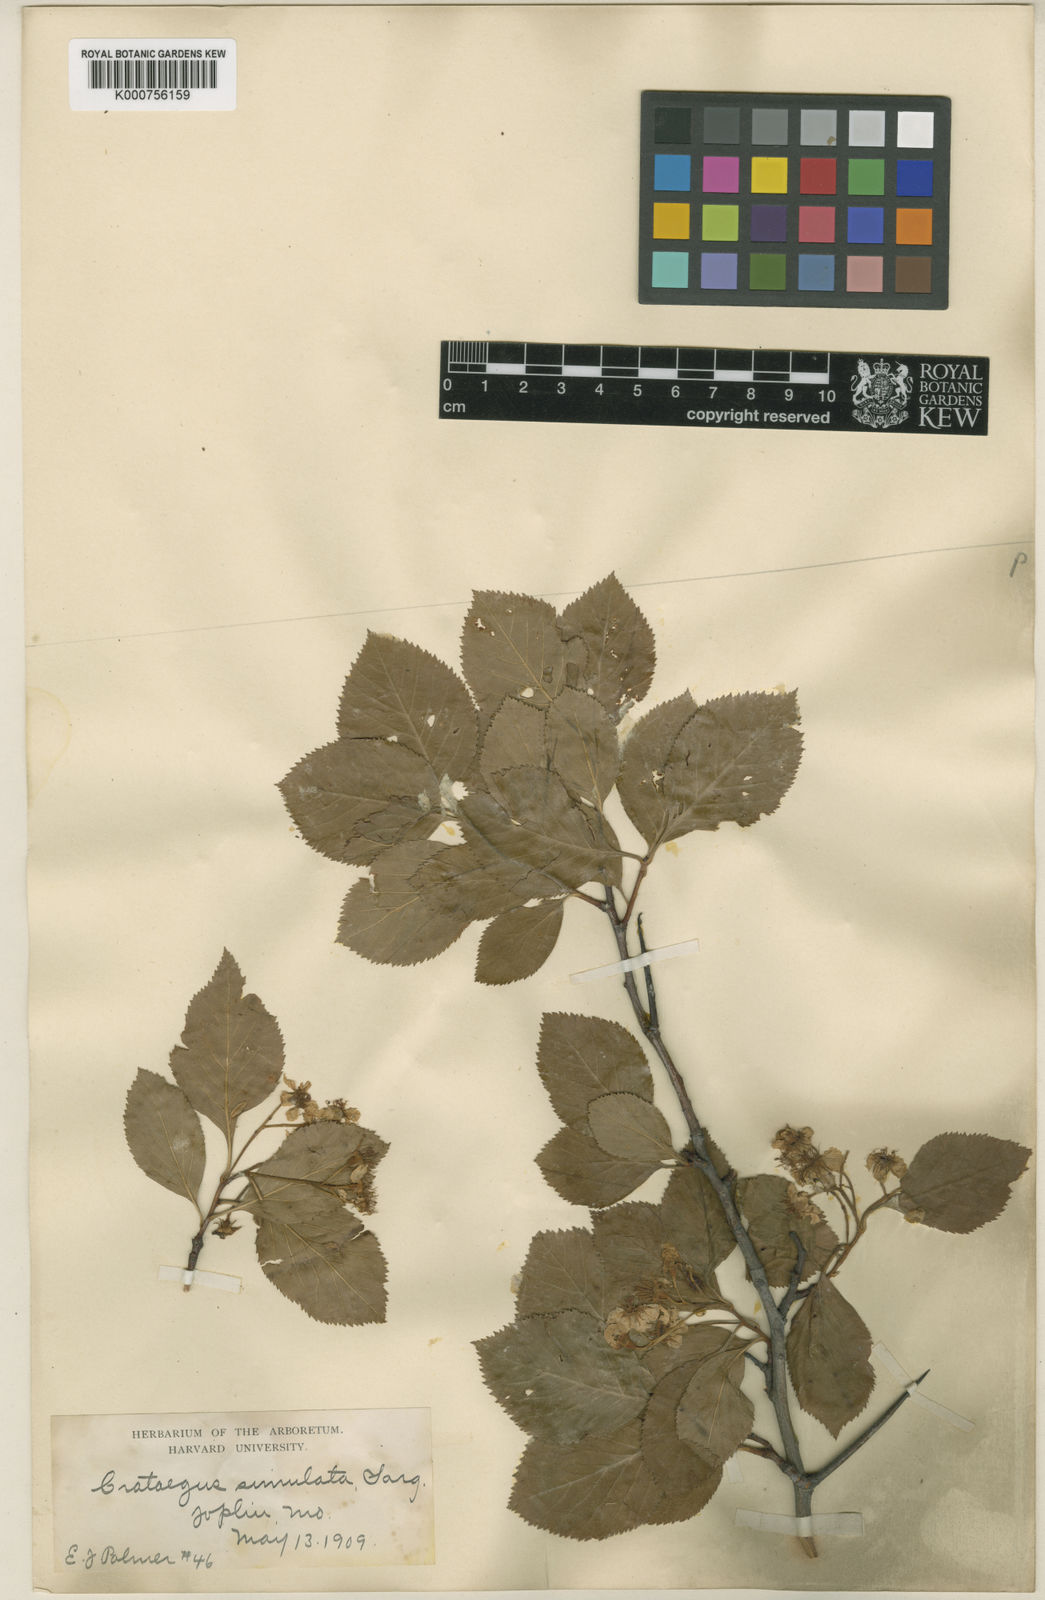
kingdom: Plantae
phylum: Tracheophyta
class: Magnoliopsida
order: Rosales
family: Rosaceae
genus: Crataegus
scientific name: Crataegus simulata
